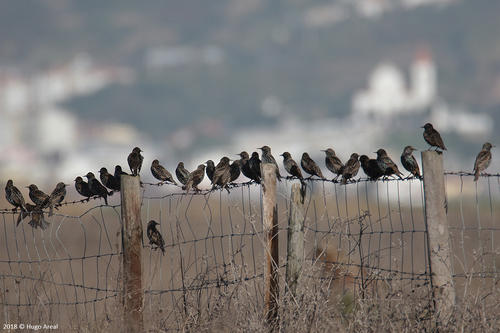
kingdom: Animalia
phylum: Chordata
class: Aves
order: Passeriformes
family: Sturnidae
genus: Sturnus
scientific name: Sturnus vulgaris
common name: Common starling
